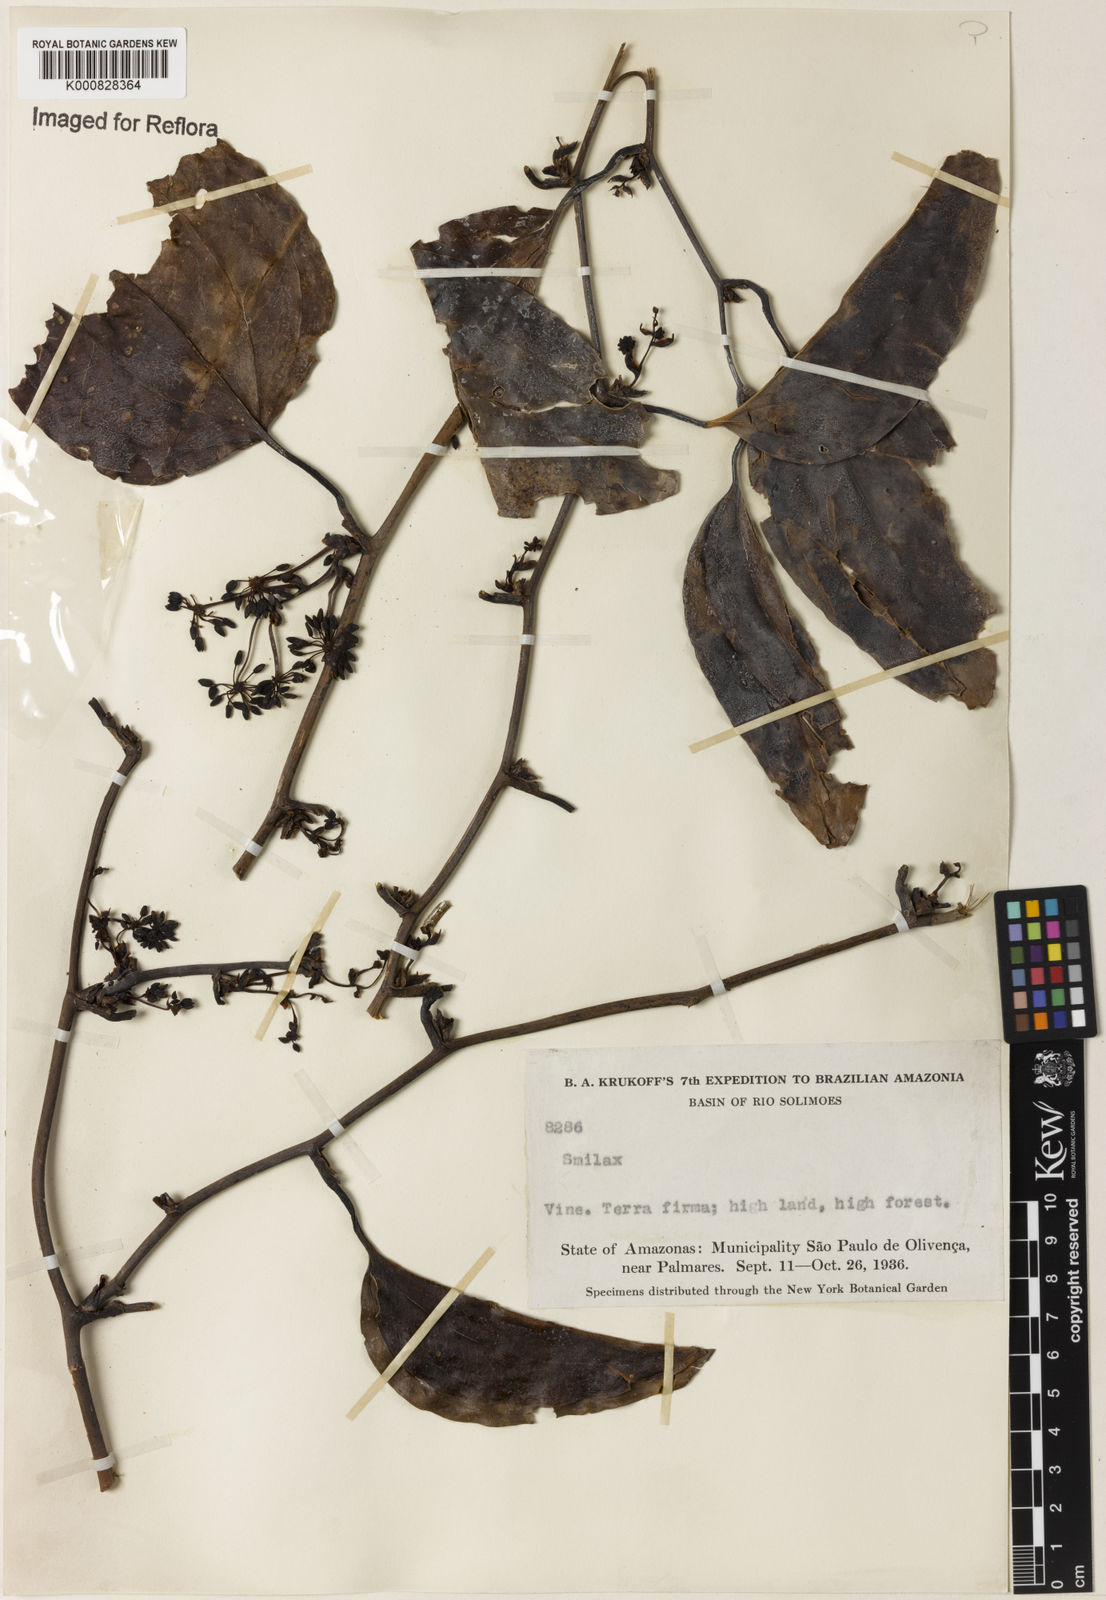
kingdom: Plantae
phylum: Tracheophyta
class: Liliopsida
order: Liliales
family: Smilacaceae
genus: Smilax
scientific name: Smilax
